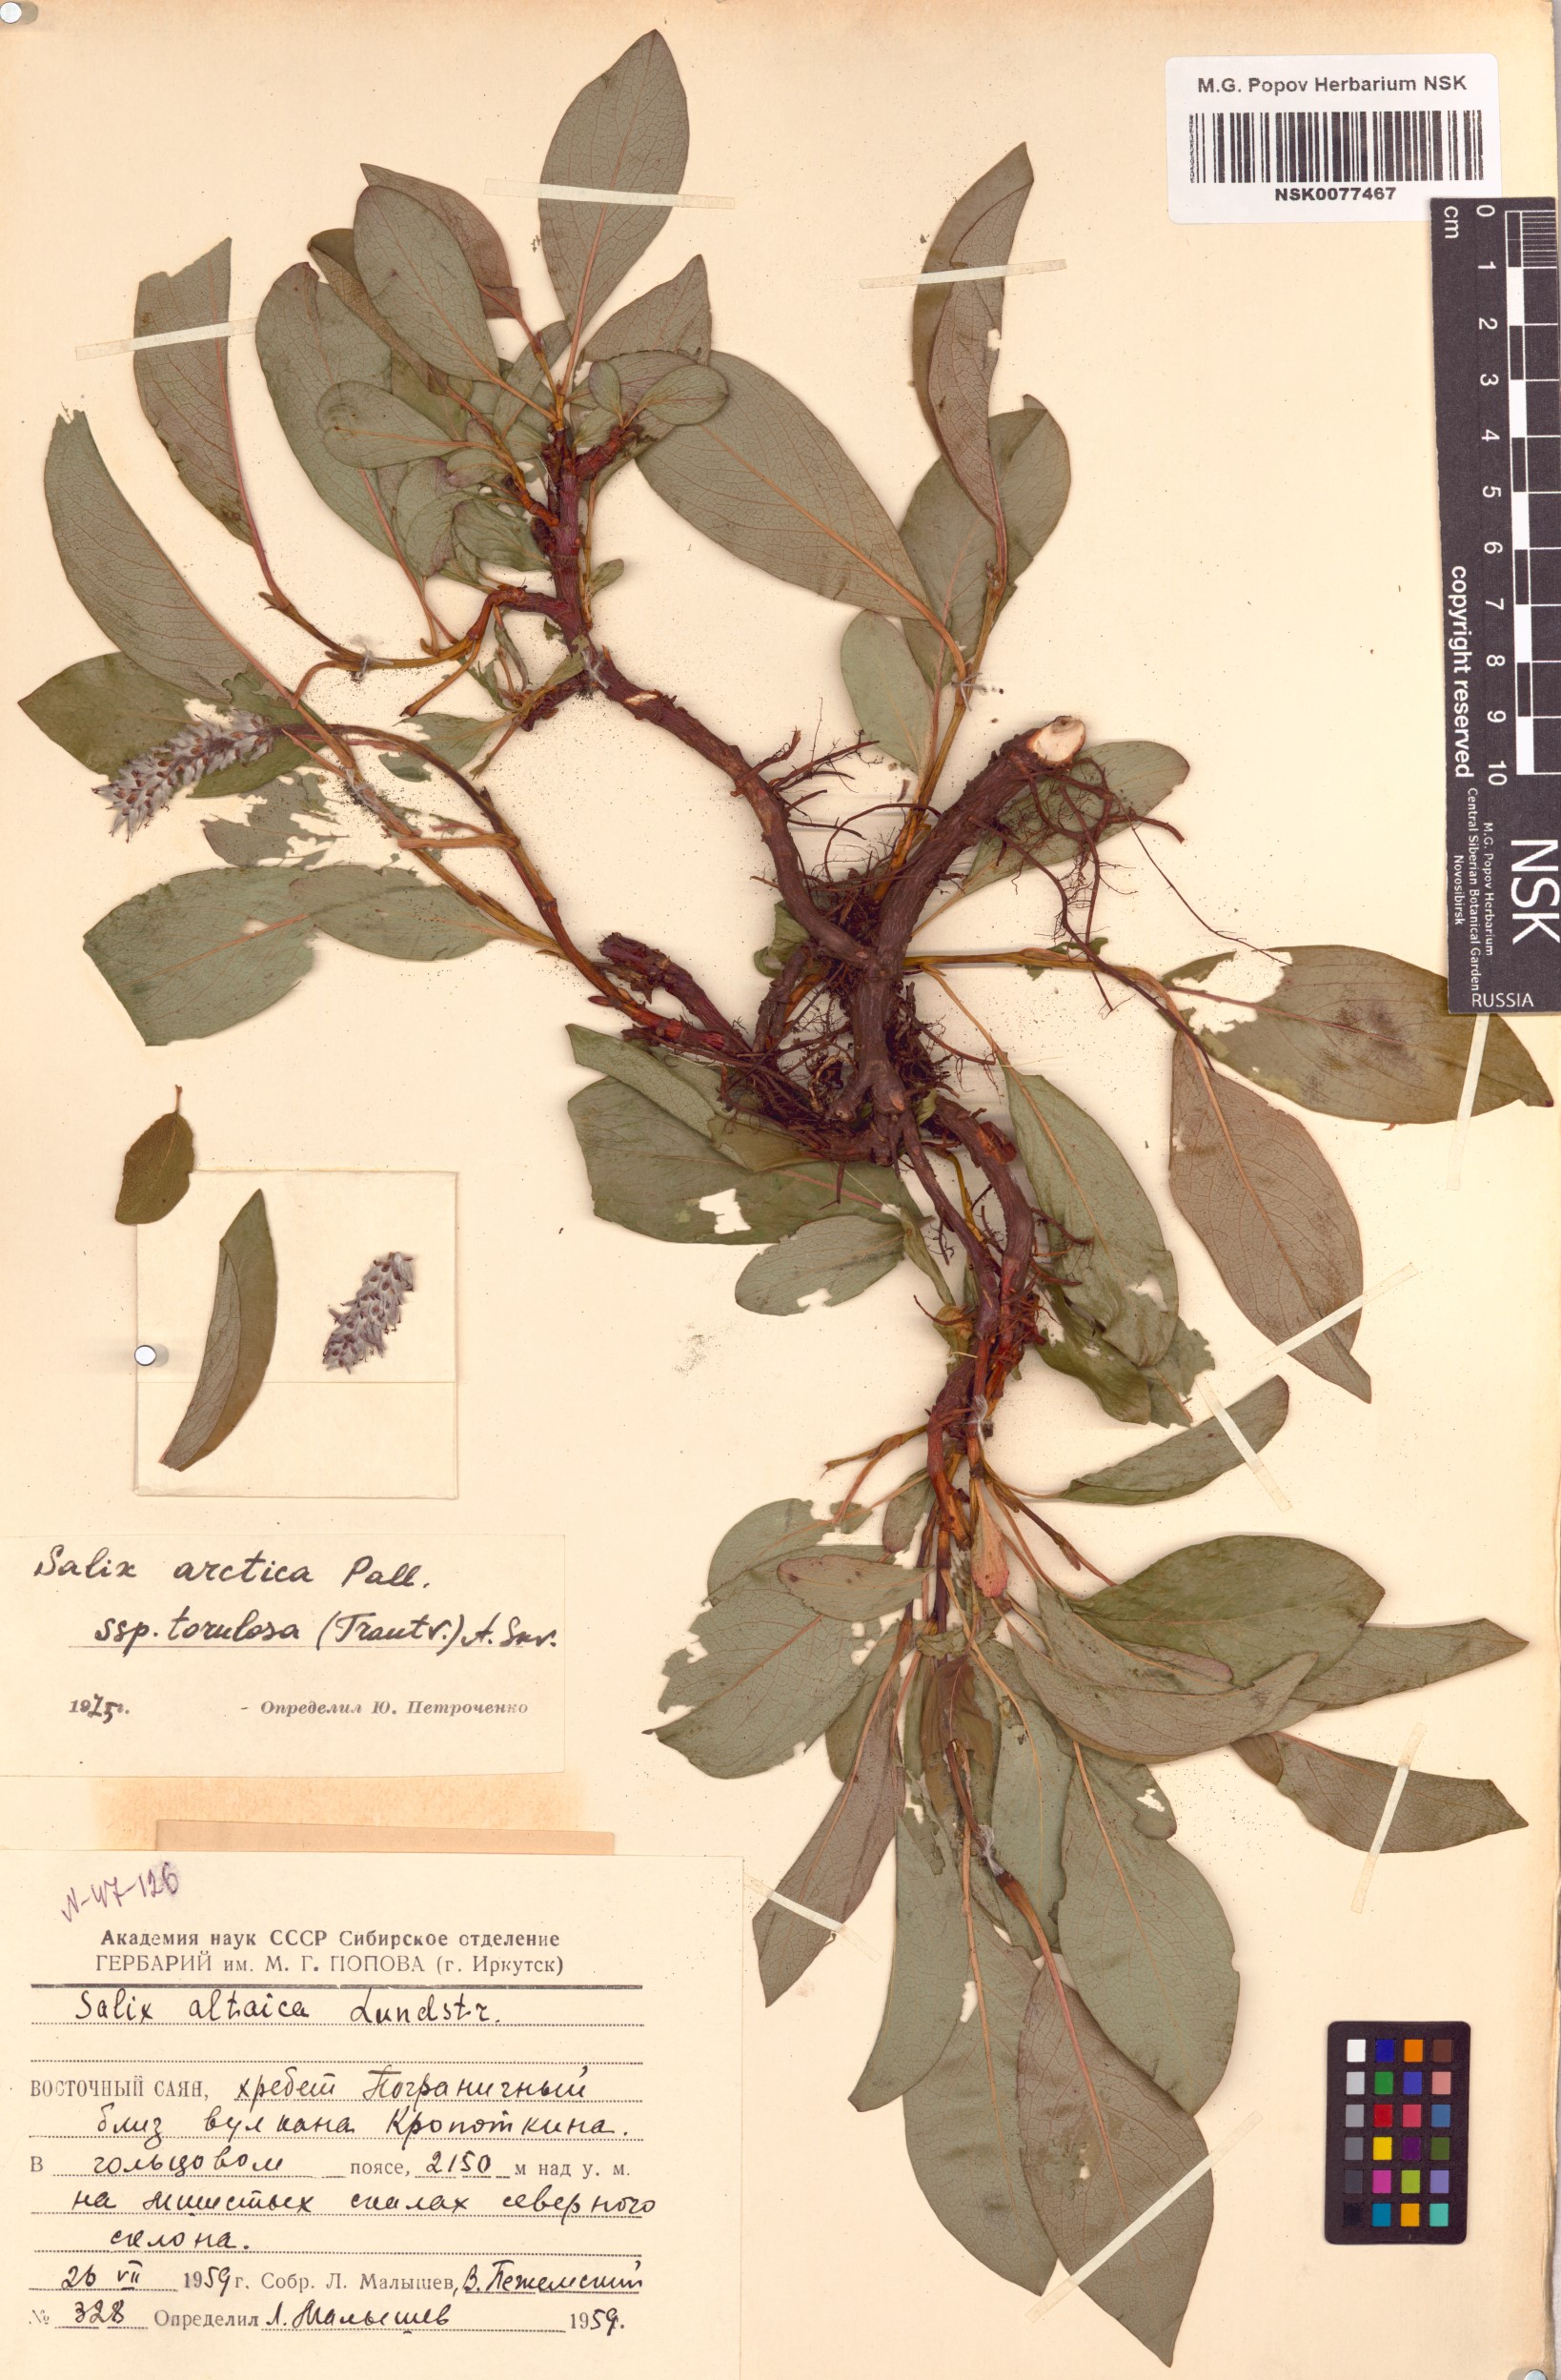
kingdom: Plantae
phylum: Tracheophyta
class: Magnoliopsida
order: Malpighiales
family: Salicaceae
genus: Salix
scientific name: Salix arctica
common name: Arctic willow
